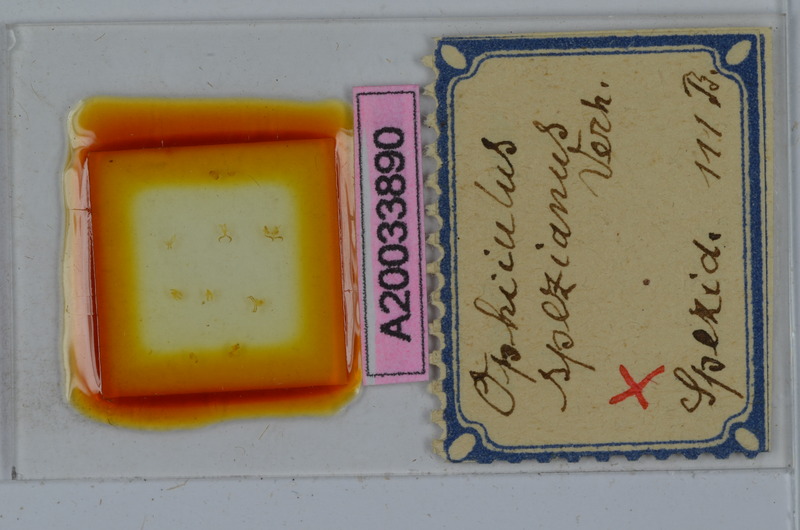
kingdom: Animalia
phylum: Arthropoda
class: Diplopoda
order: Julida
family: Julidae
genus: Ophyiulus
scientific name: Ophyiulus spezianus
